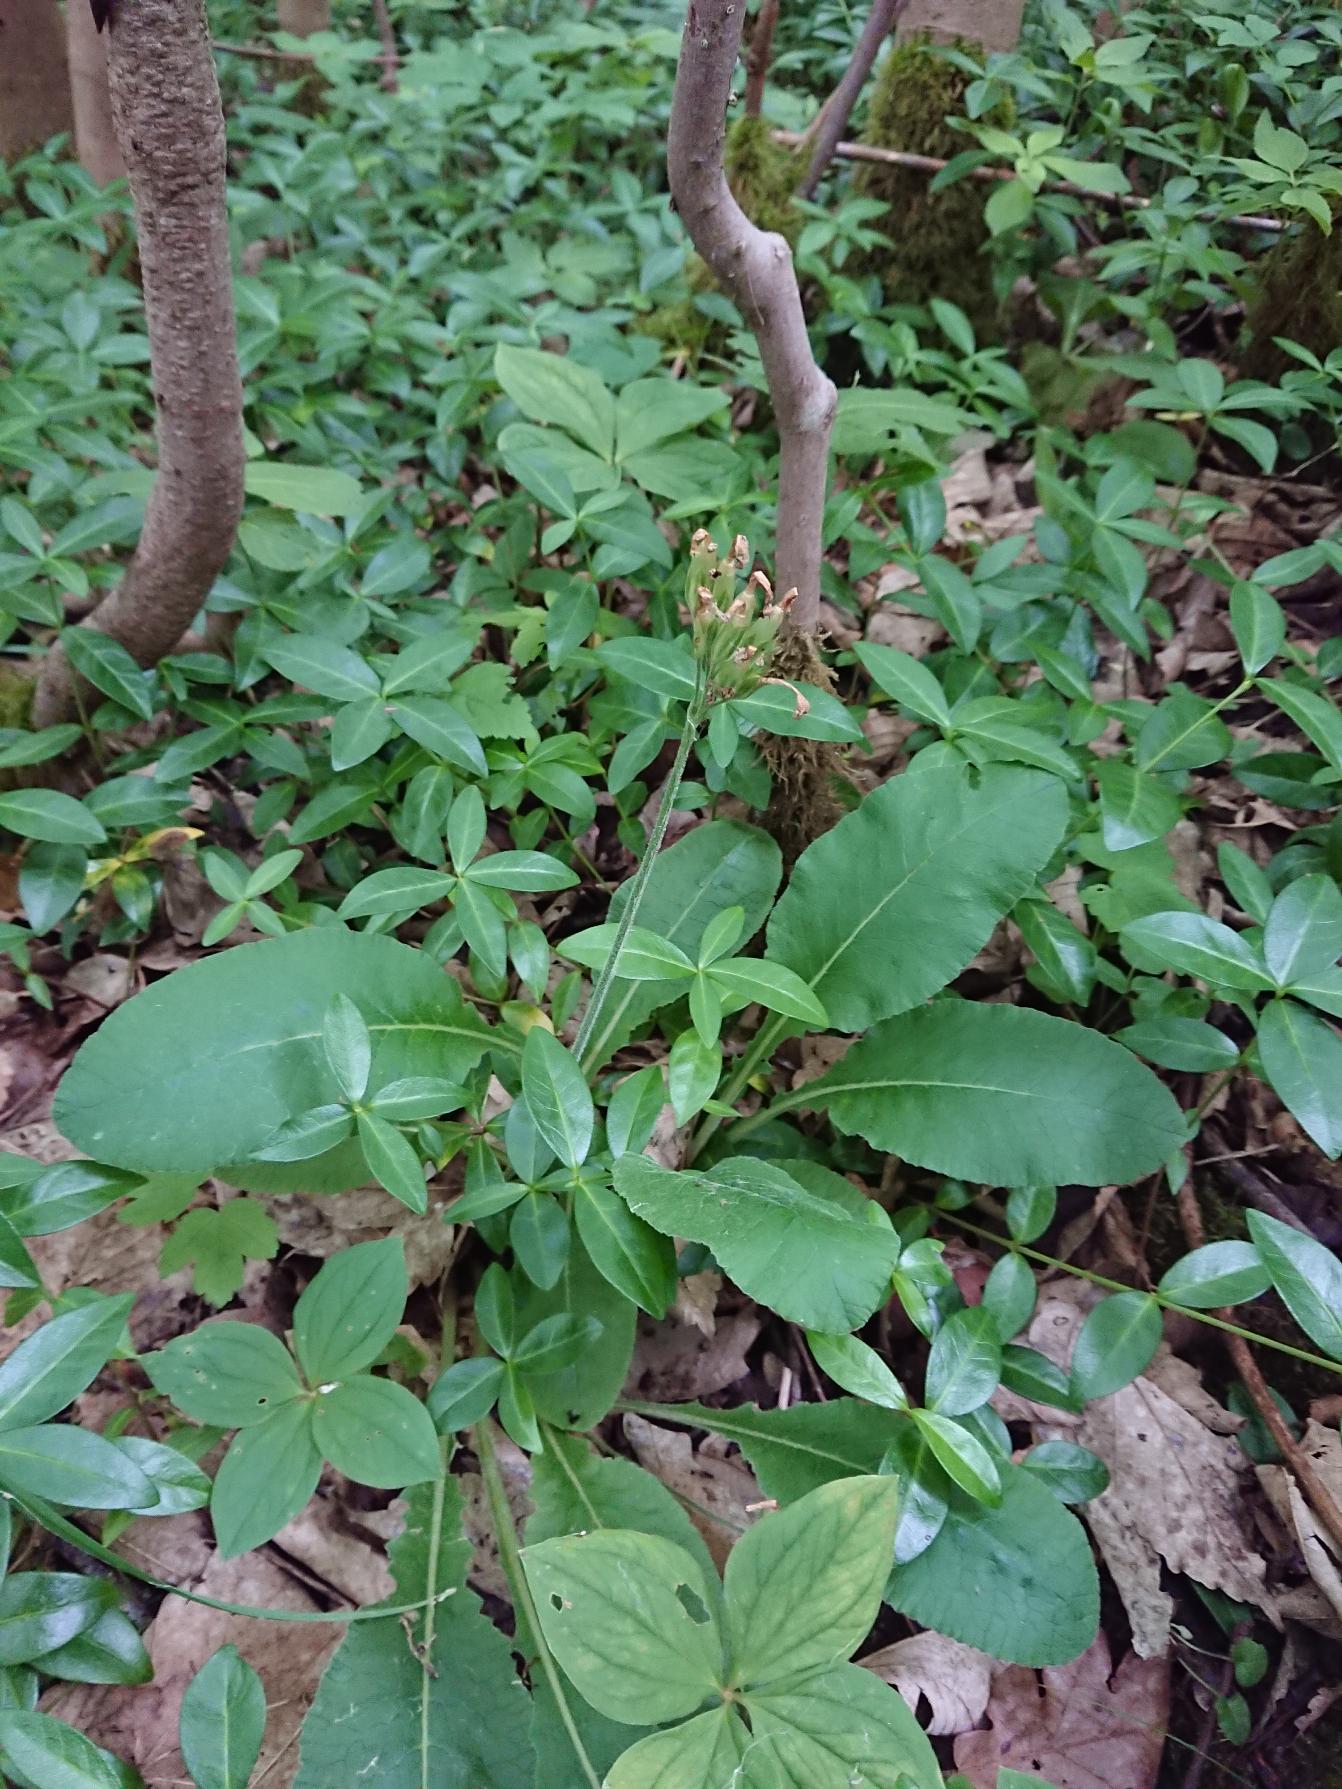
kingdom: Plantae
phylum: Tracheophyta
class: Magnoliopsida
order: Ericales
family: Primulaceae
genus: Primula
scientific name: Primula elatior
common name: Fladkravet kodriver
